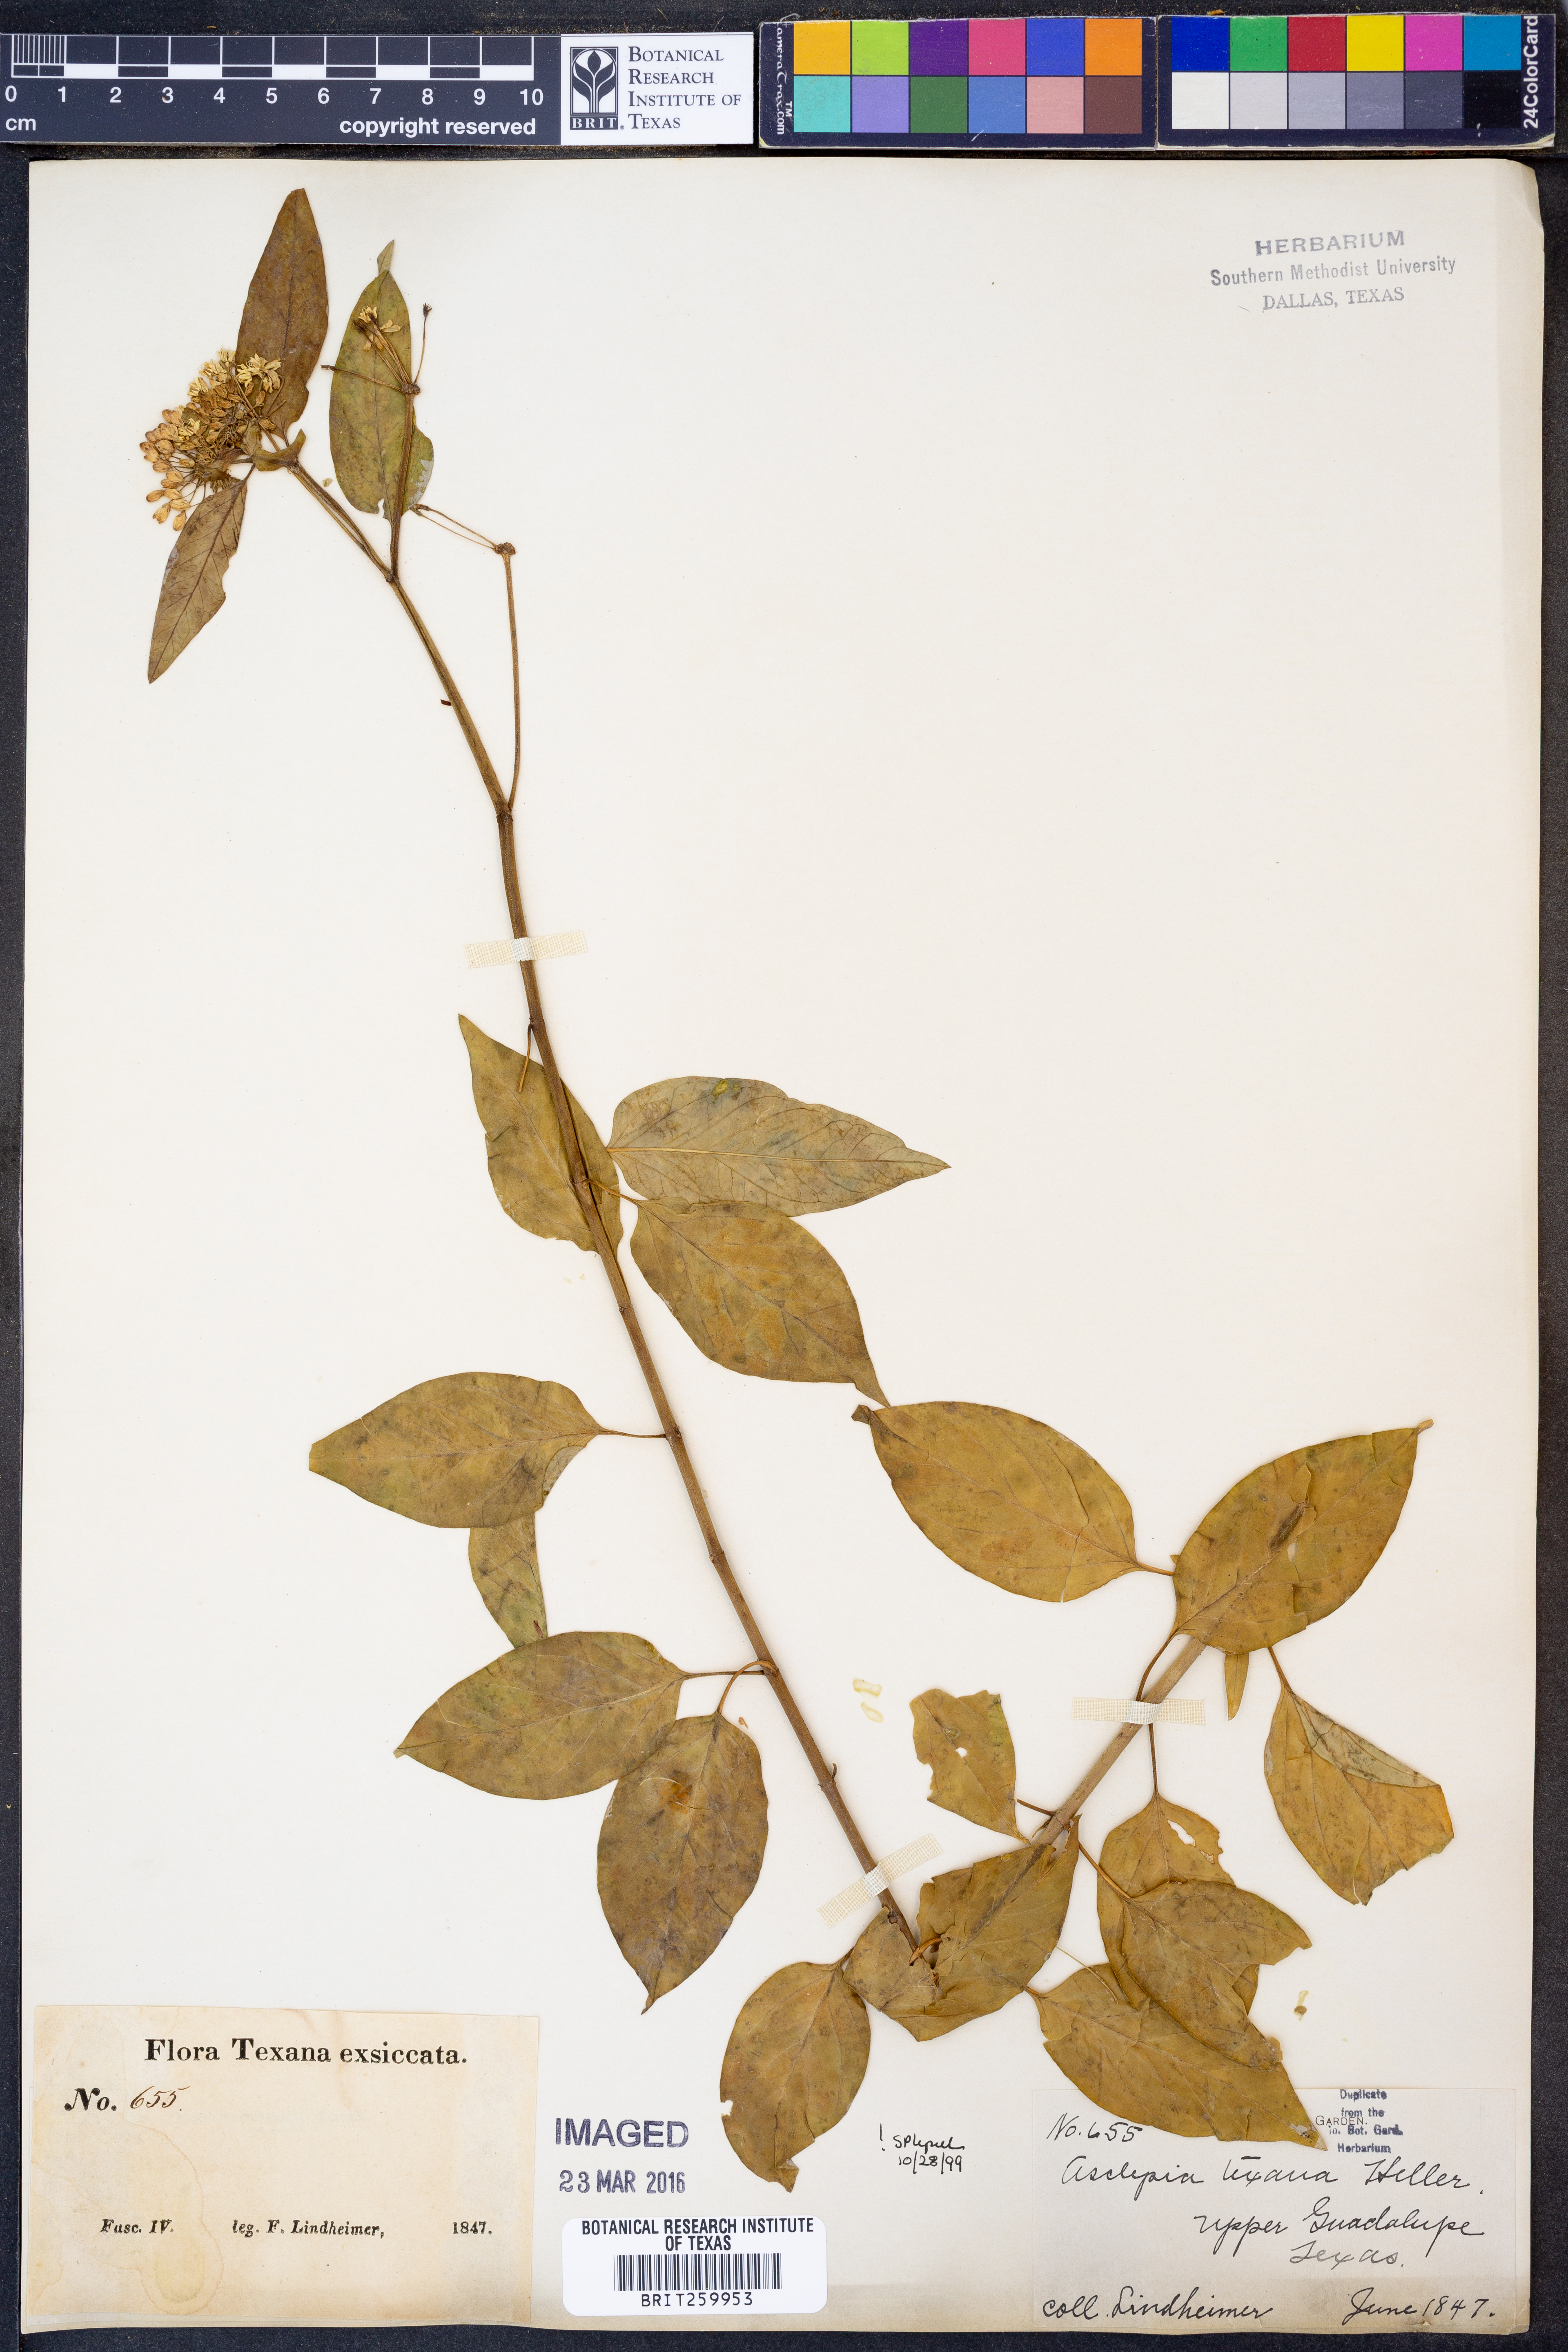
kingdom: Plantae
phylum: Tracheophyta
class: Magnoliopsida
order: Gentianales
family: Apocynaceae
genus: Asclepias
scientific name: Asclepias texana
